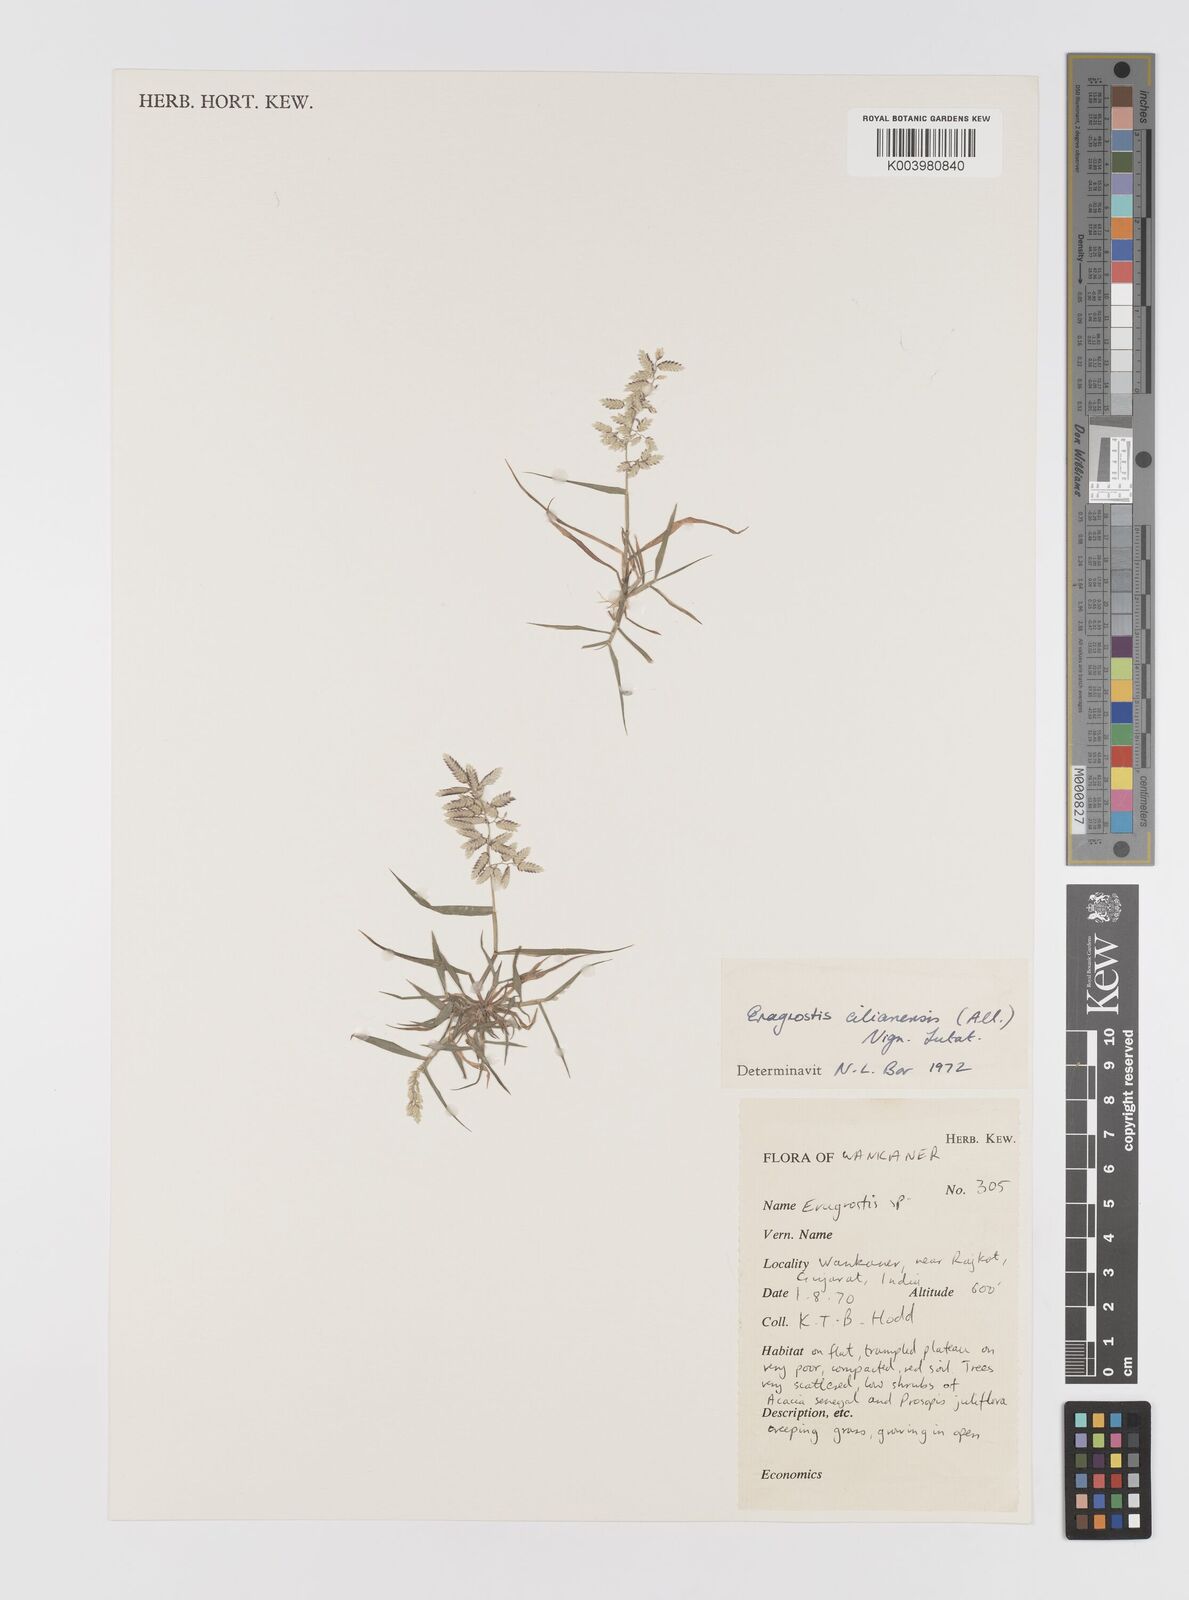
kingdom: Plantae
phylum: Tracheophyta
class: Liliopsida
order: Poales
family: Poaceae
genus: Eragrostis
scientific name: Eragrostis cilianensis
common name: Stinkgrass
